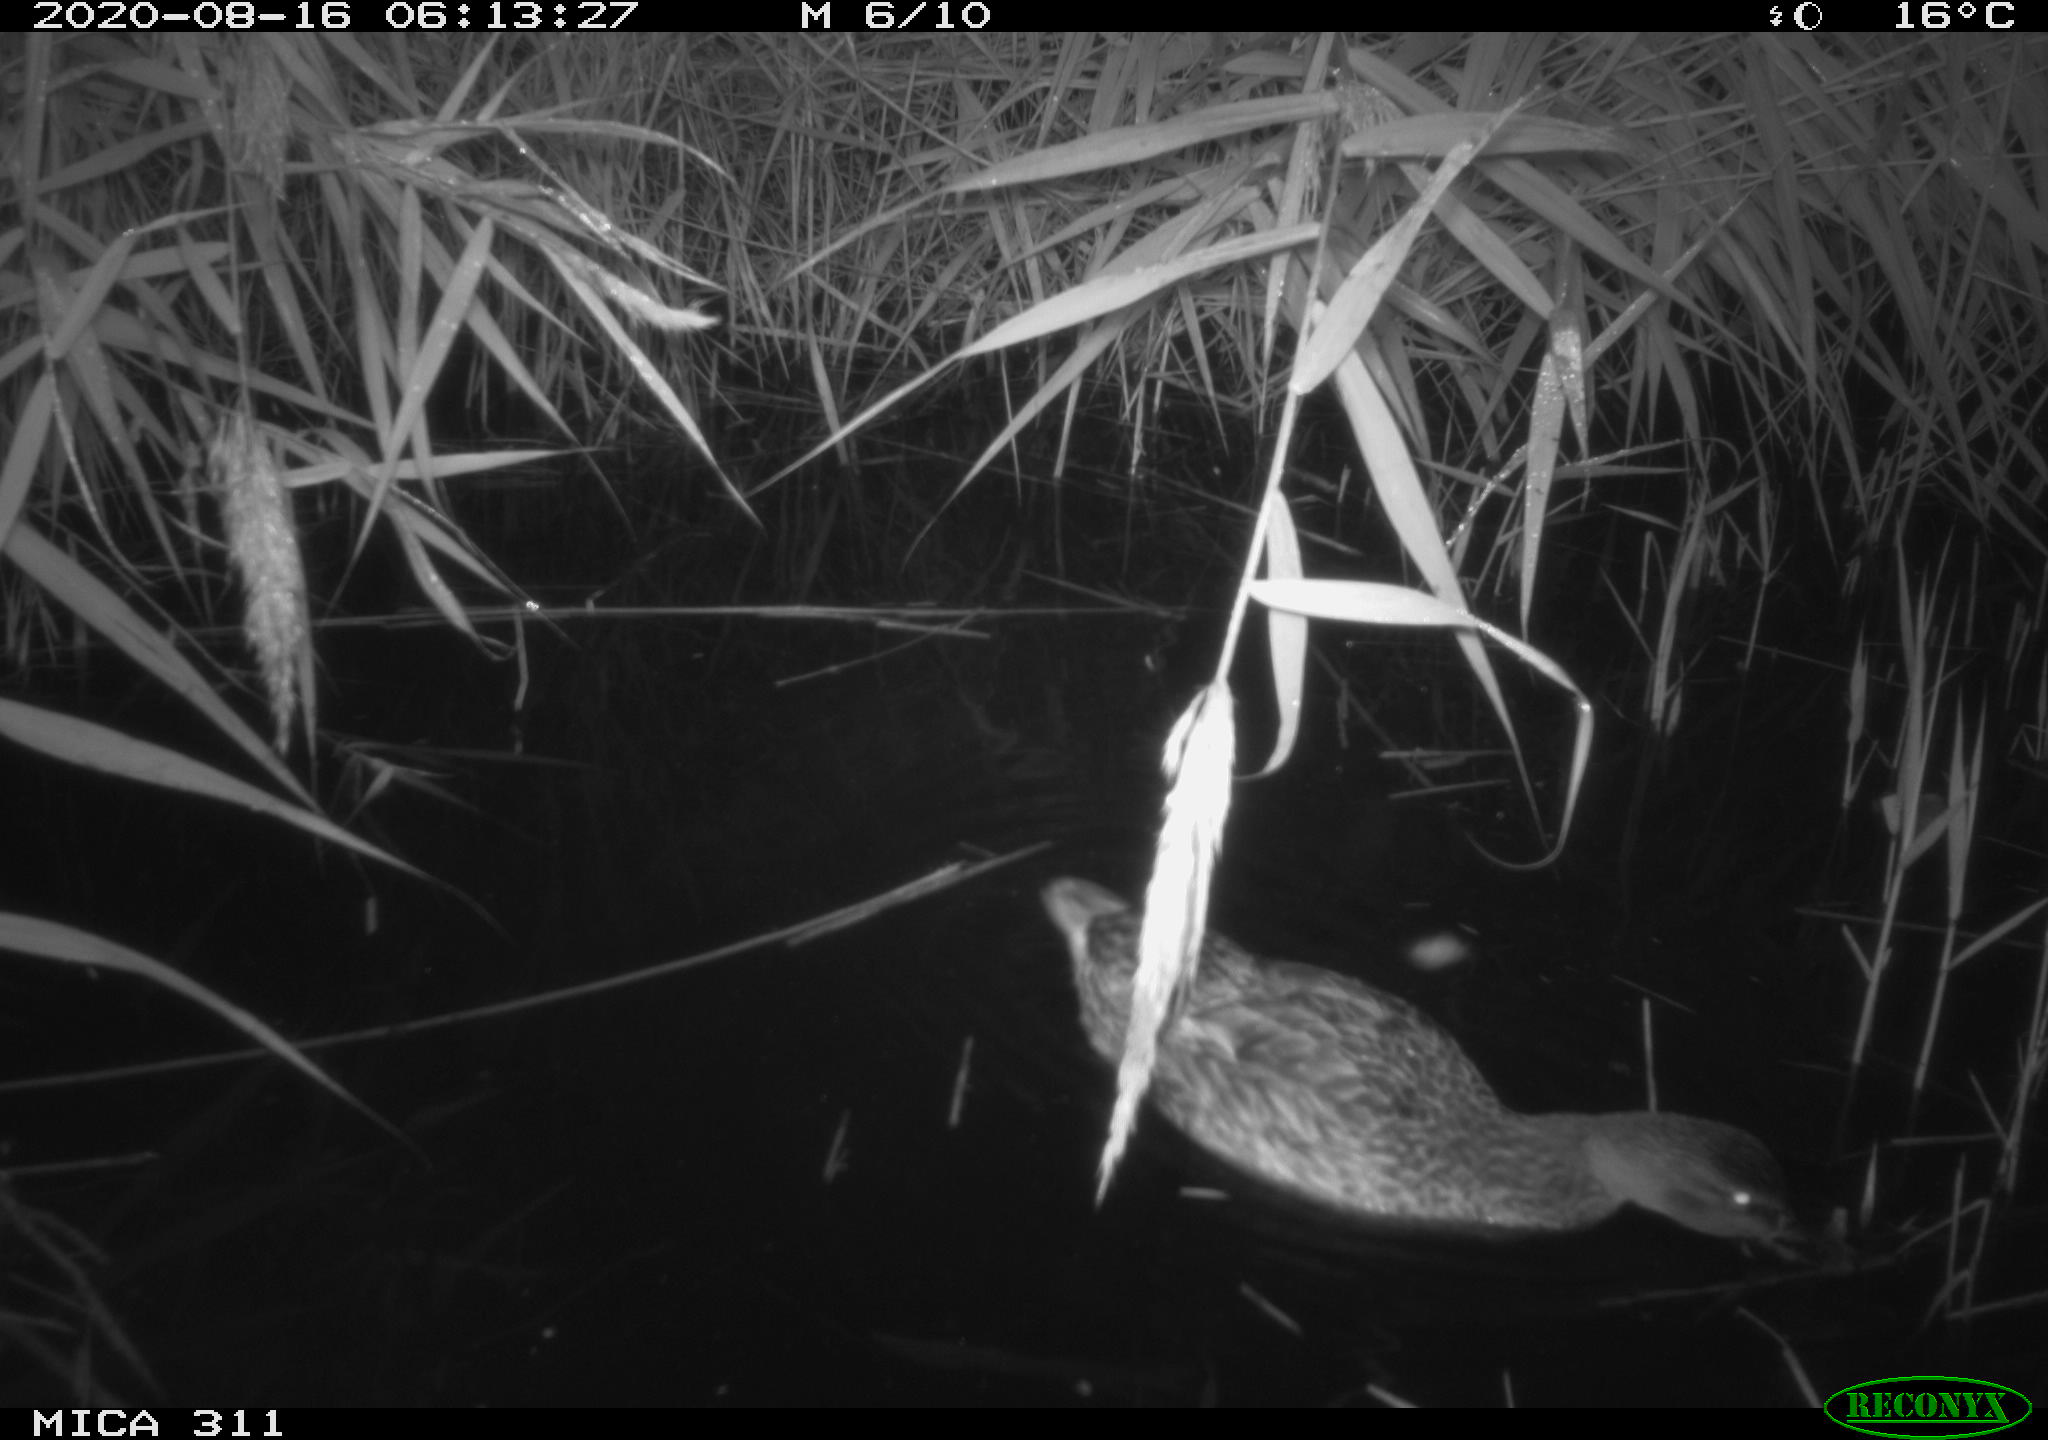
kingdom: Animalia
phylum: Chordata
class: Aves
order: Anseriformes
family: Anatidae
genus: Anas
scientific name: Anas platyrhynchos
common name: Mallard
